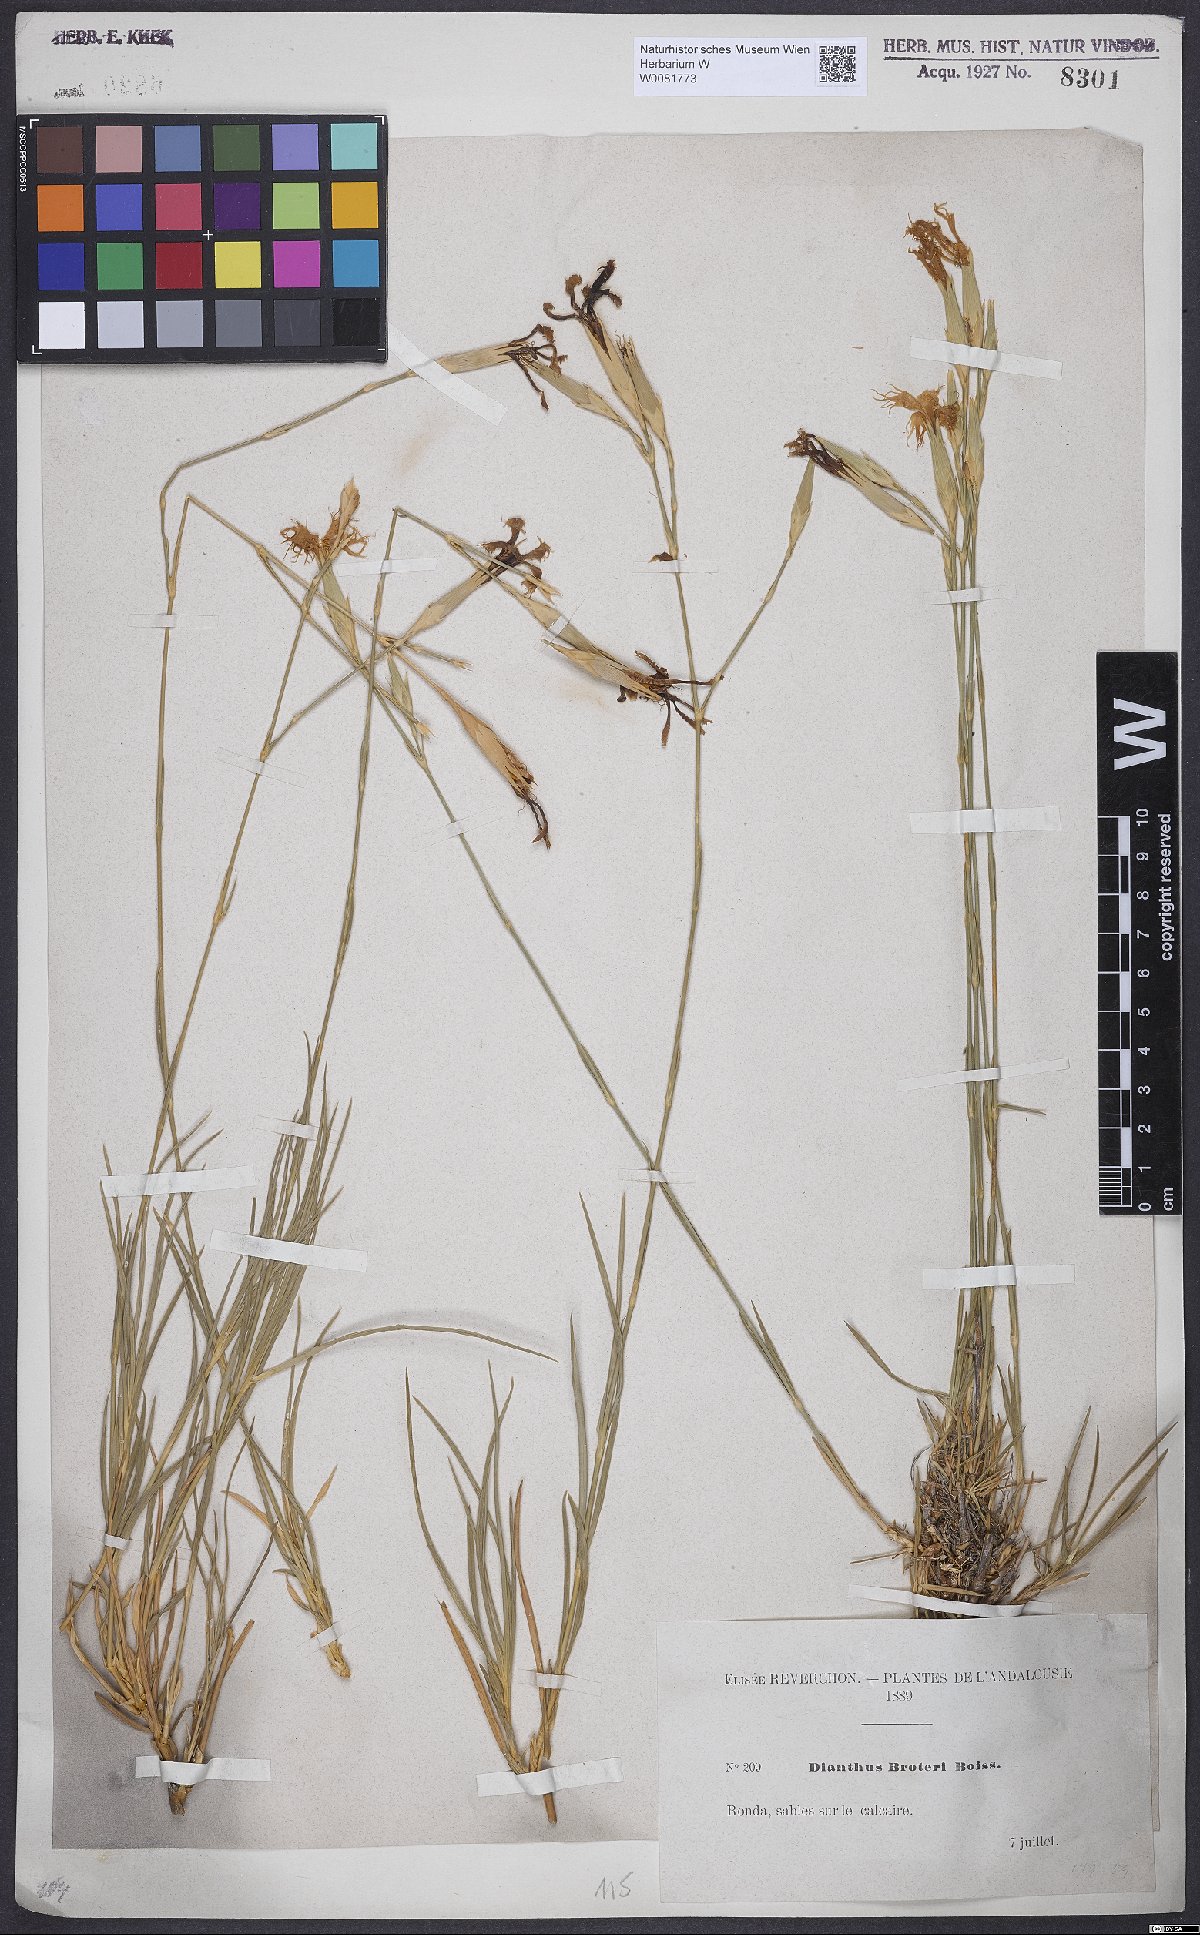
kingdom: Plantae
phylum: Tracheophyta
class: Magnoliopsida
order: Caryophyllales
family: Caryophyllaceae
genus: Dianthus
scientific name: Dianthus broteri
